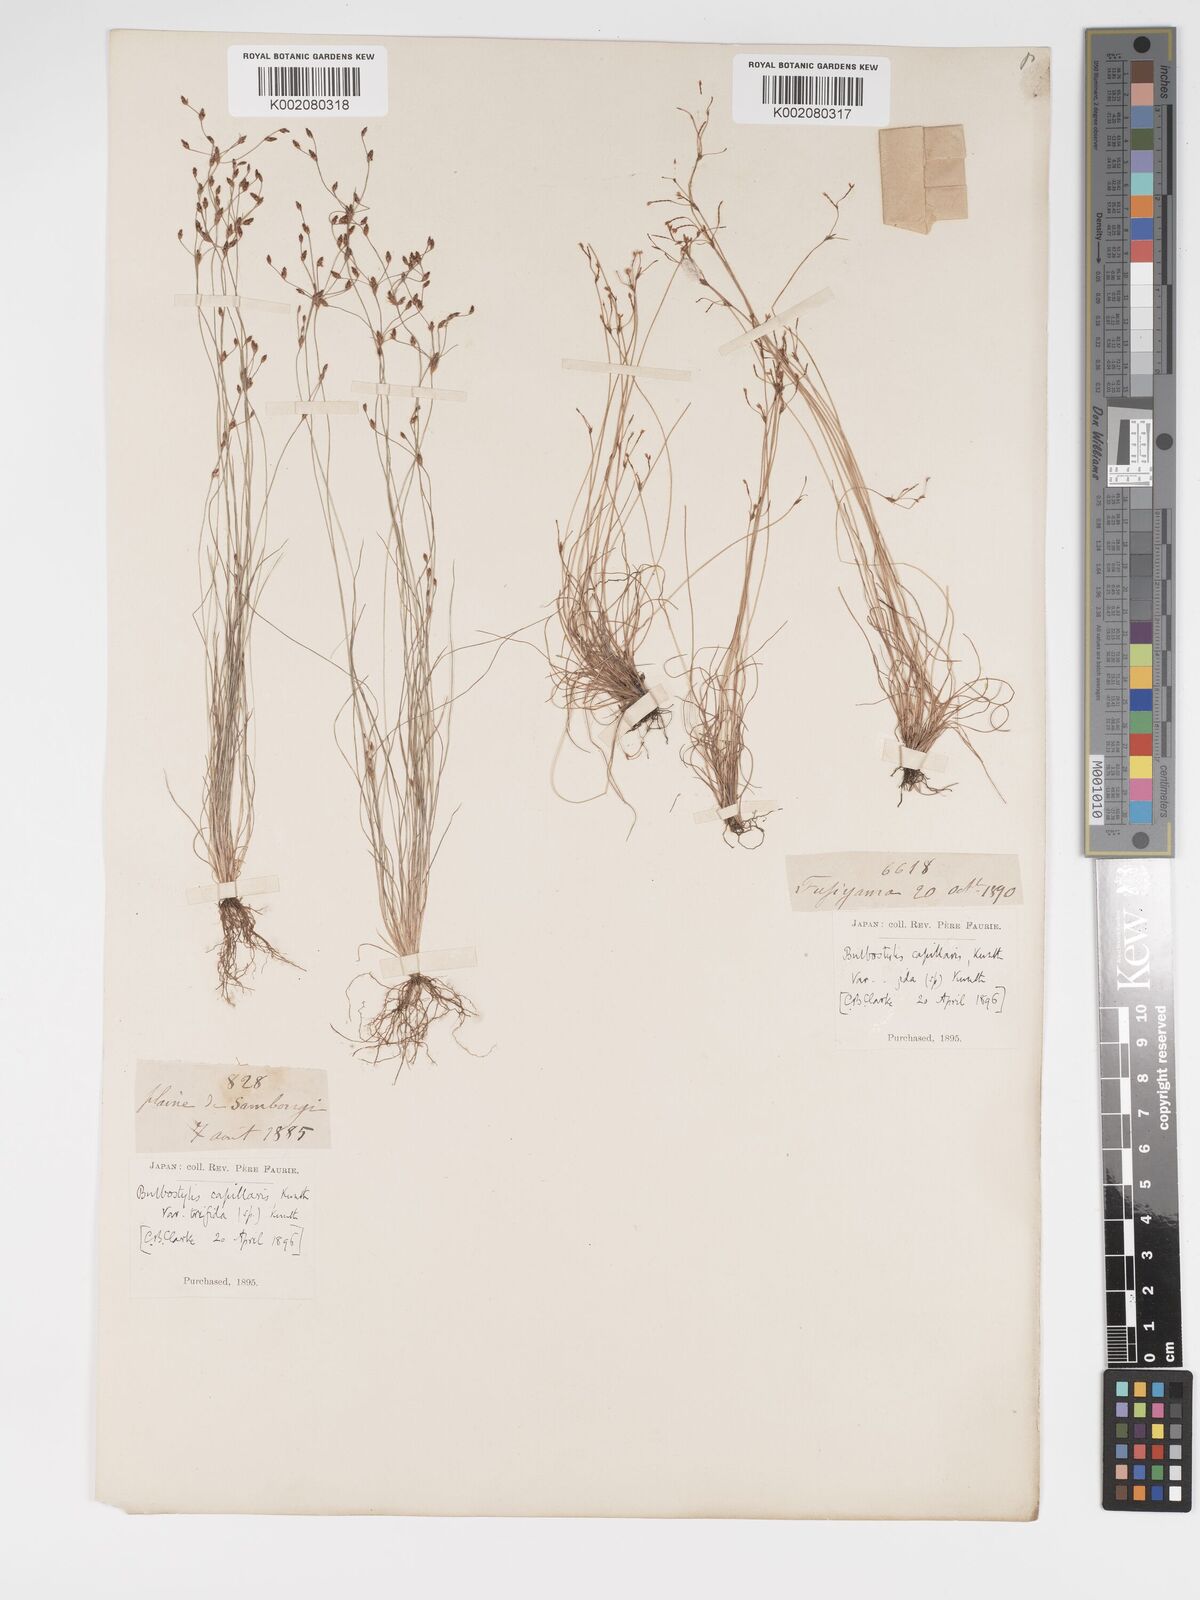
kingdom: Plantae
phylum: Tracheophyta
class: Liliopsida
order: Poales
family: Cyperaceae
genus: Bulbostylis
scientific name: Bulbostylis capillaris
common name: Densetuft hairsedge
